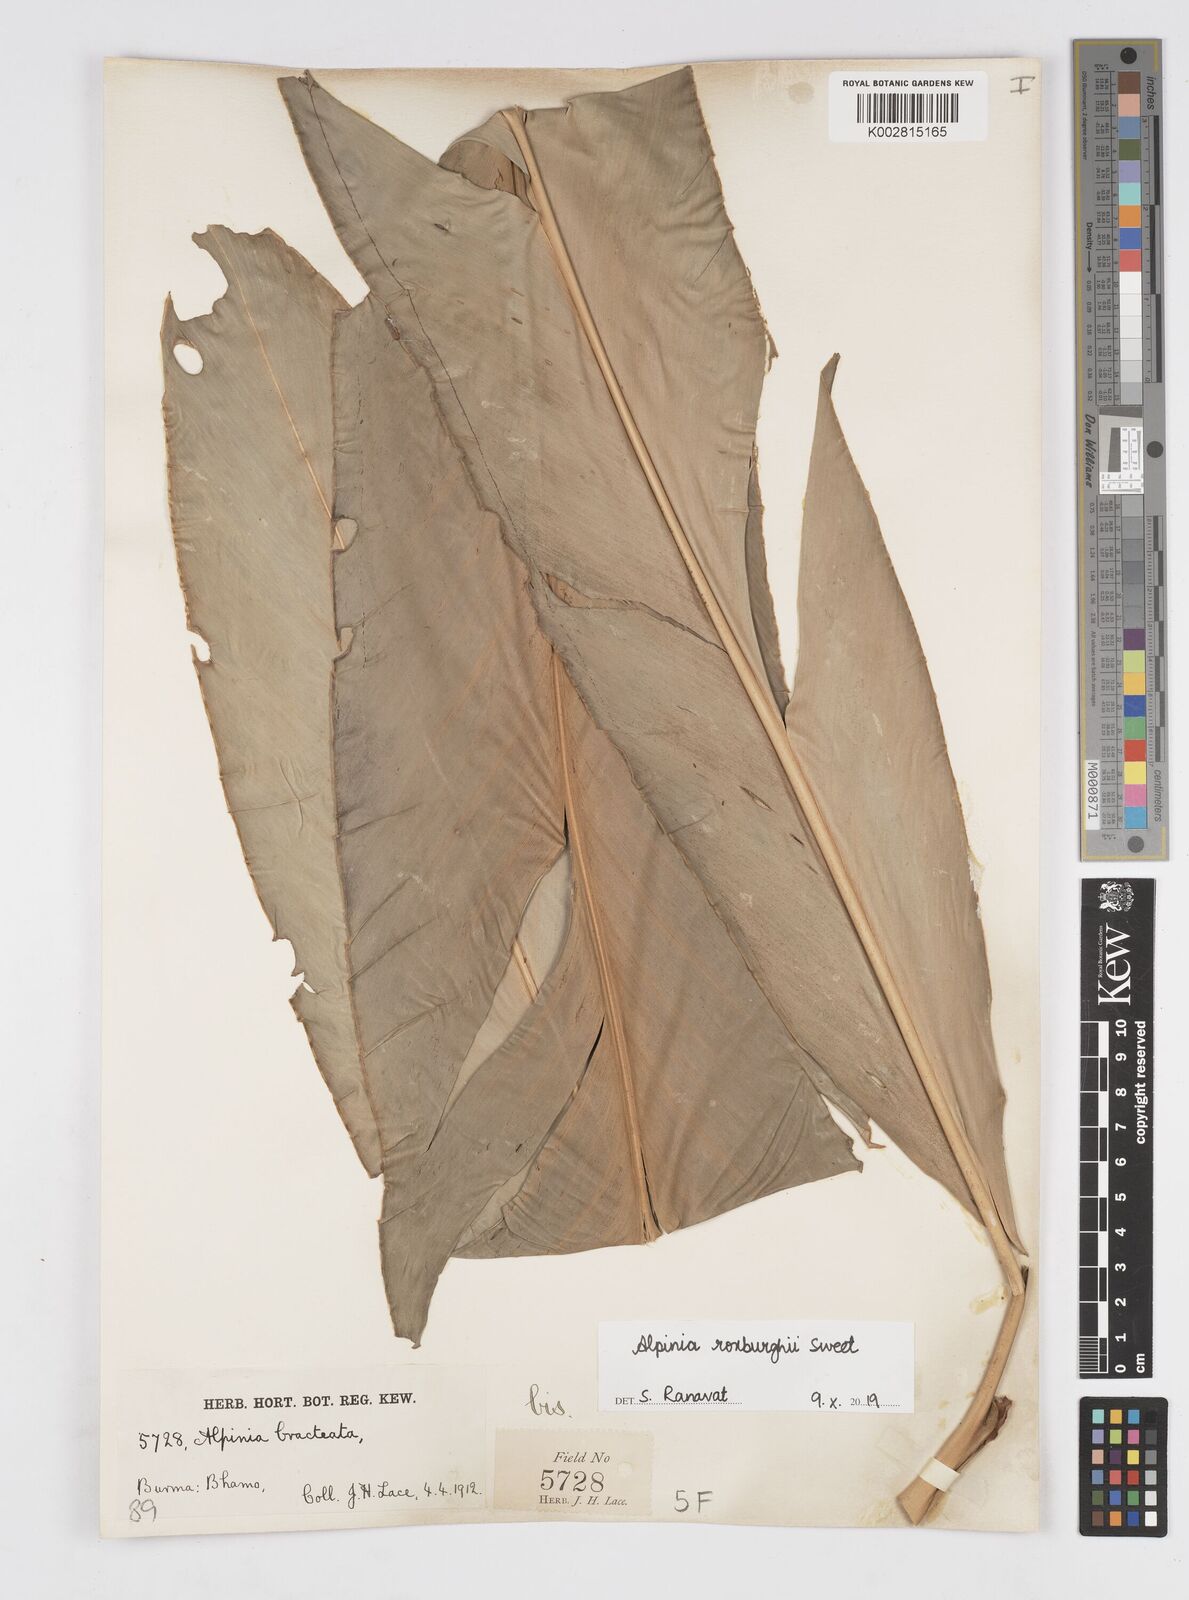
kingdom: Plantae
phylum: Tracheophyta
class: Liliopsida
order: Zingiberales
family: Zingiberaceae
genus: Alpinia
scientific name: Alpinia roxburghii
